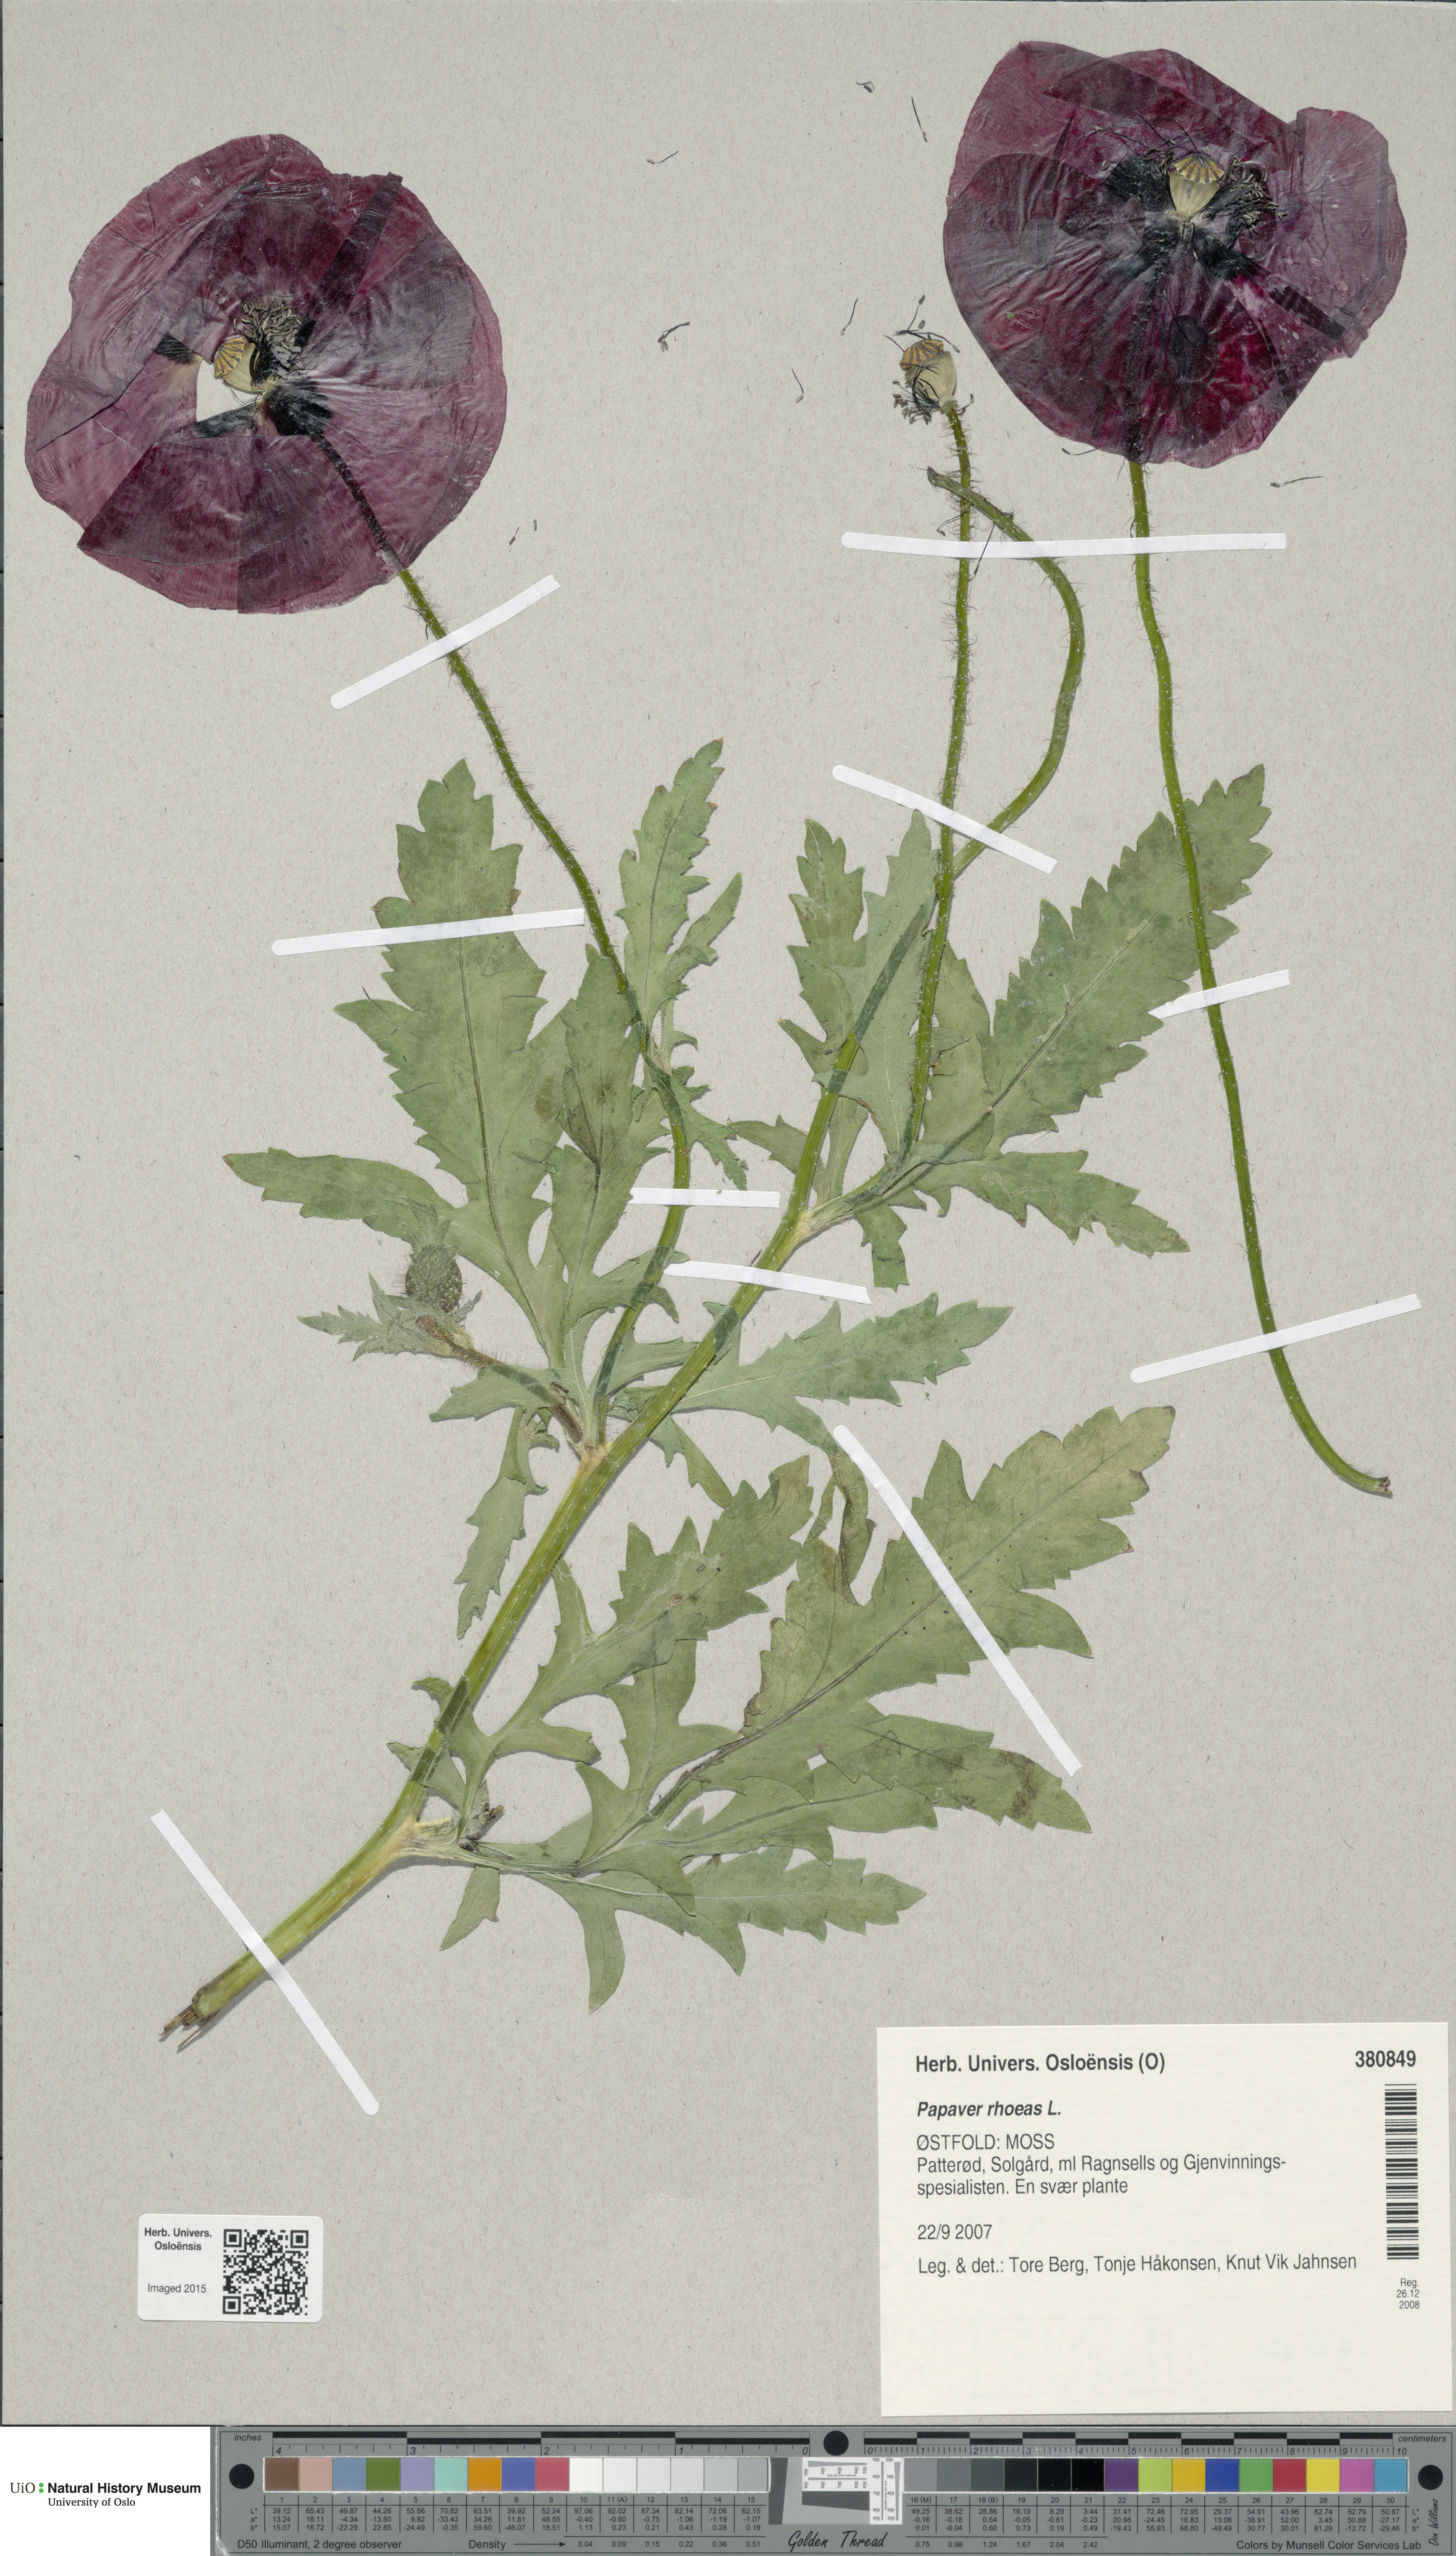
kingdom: Plantae
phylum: Tracheophyta
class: Magnoliopsida
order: Ranunculales
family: Papaveraceae
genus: Papaver
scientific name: Papaver rhoeas
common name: Corn poppy
